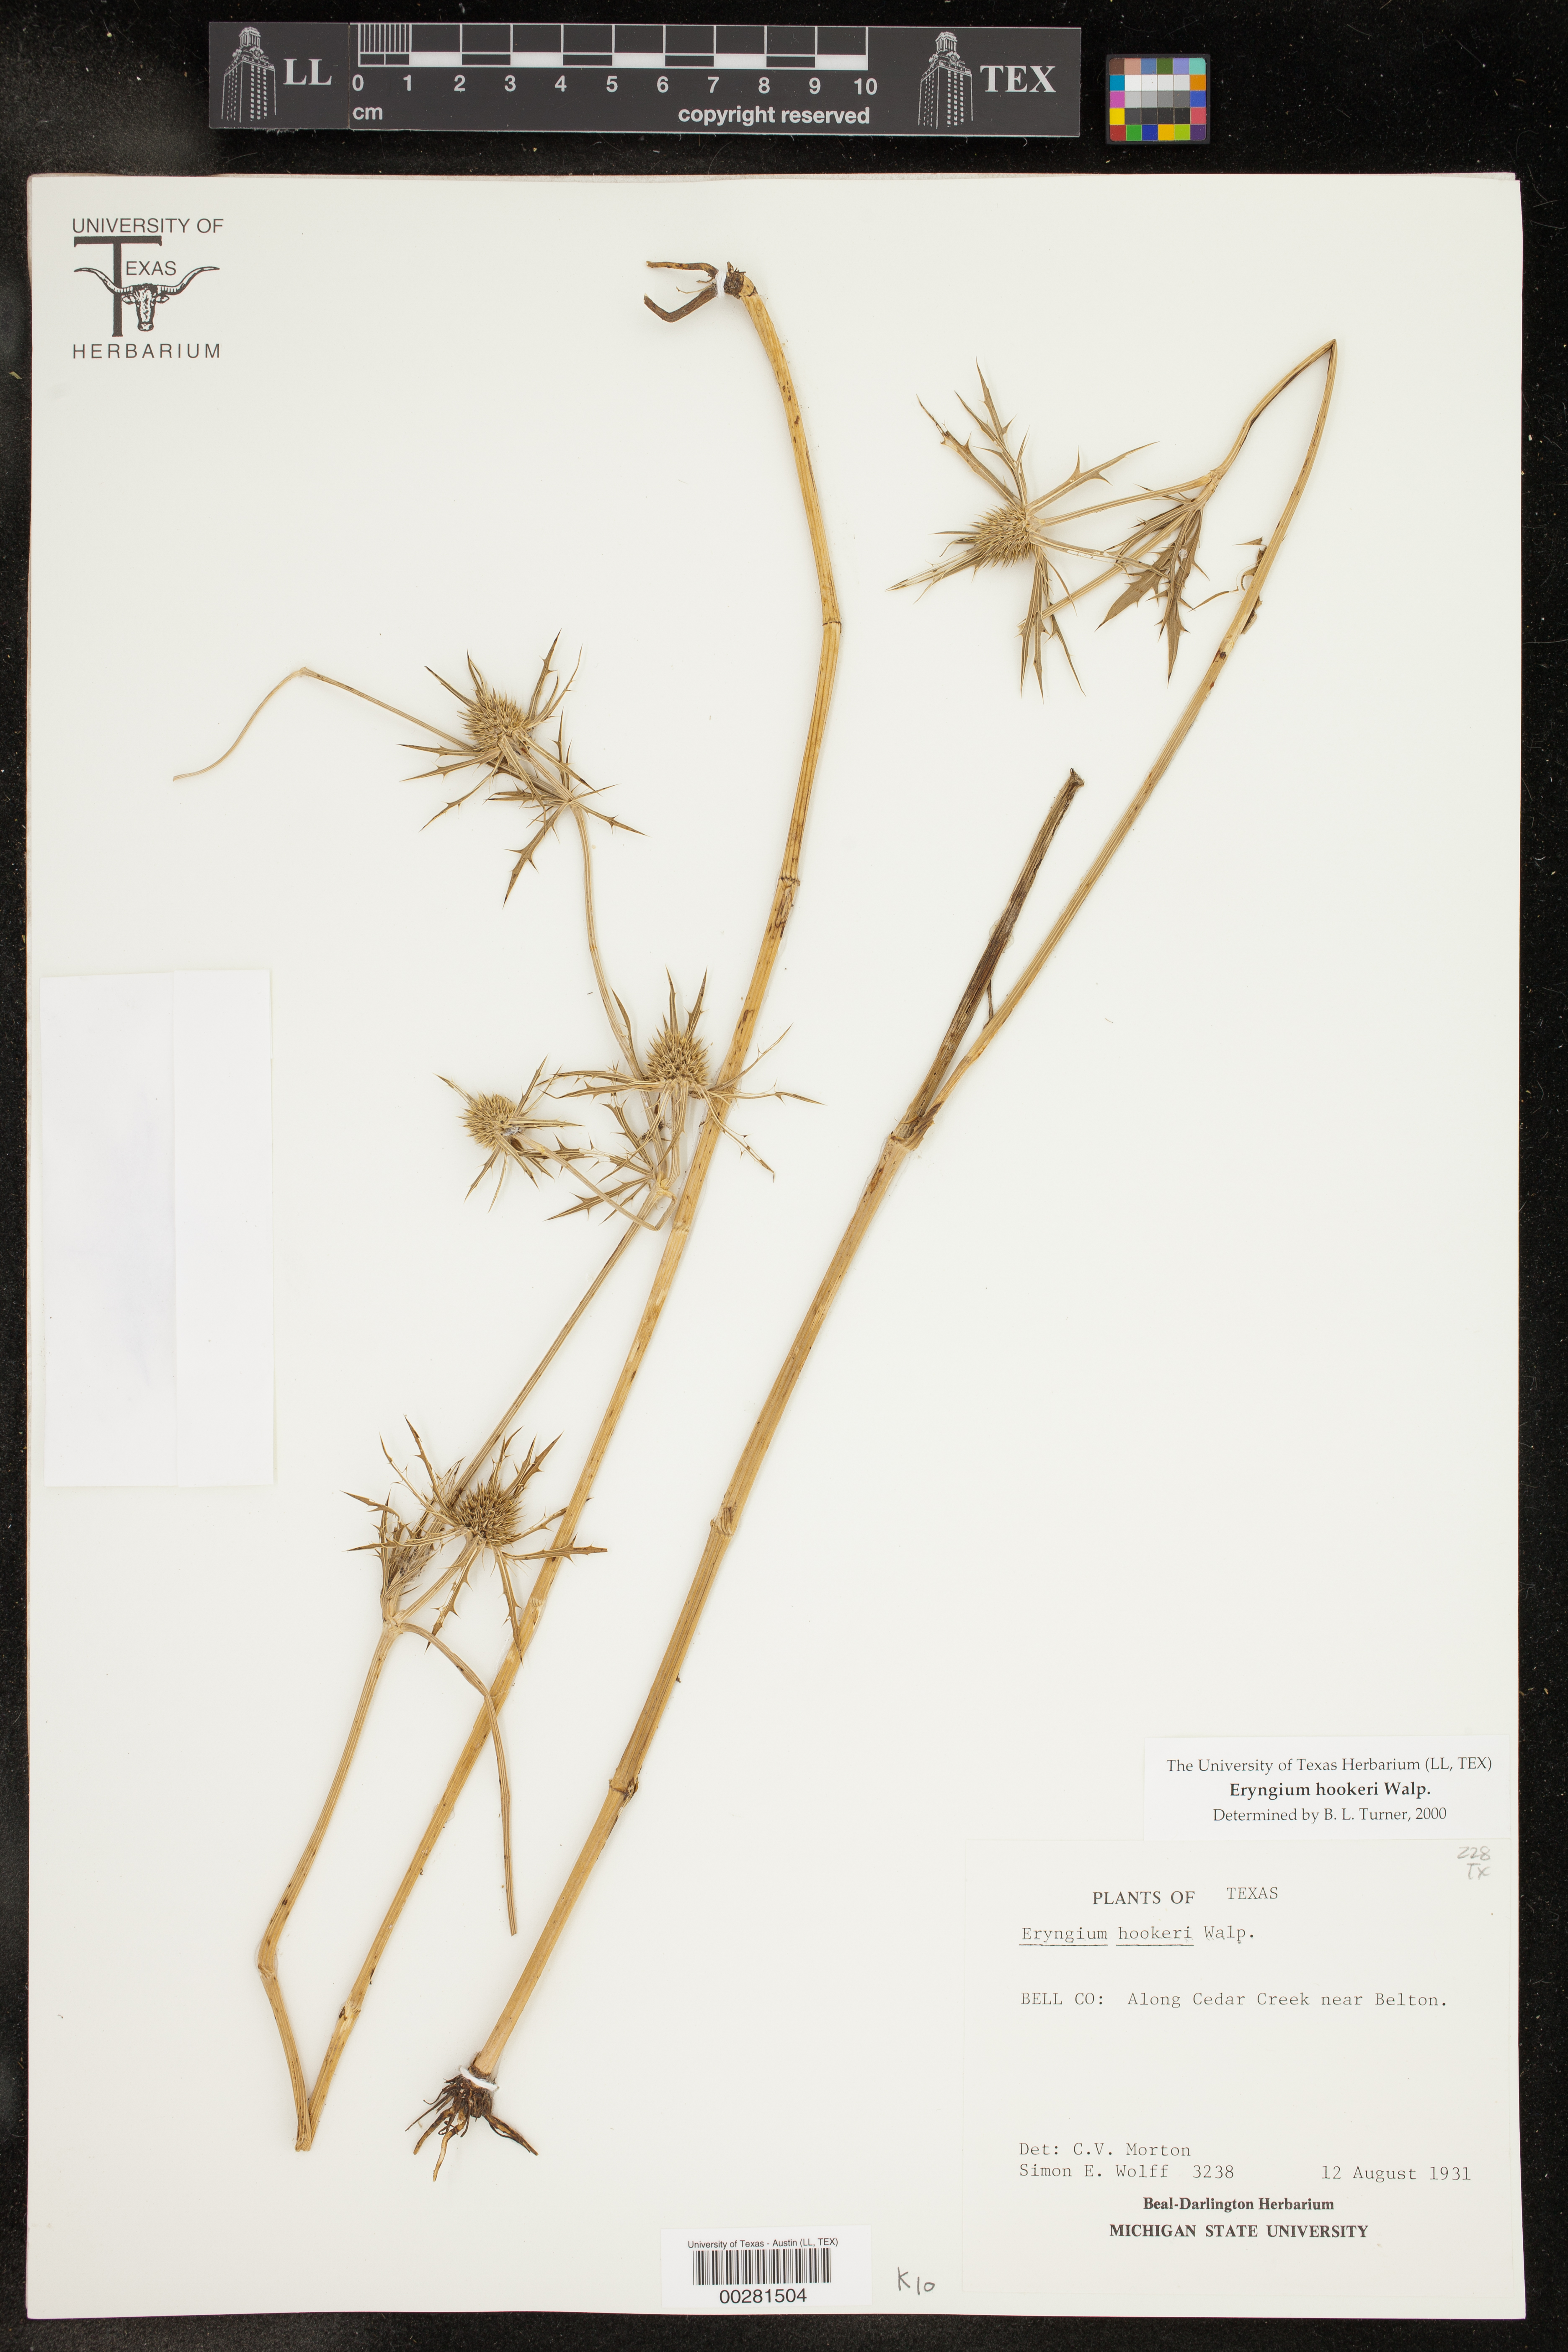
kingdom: Plantae
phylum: Tracheophyta
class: Magnoliopsida
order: Apiales
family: Apiaceae
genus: Eryngium
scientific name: Eryngium hookeri
